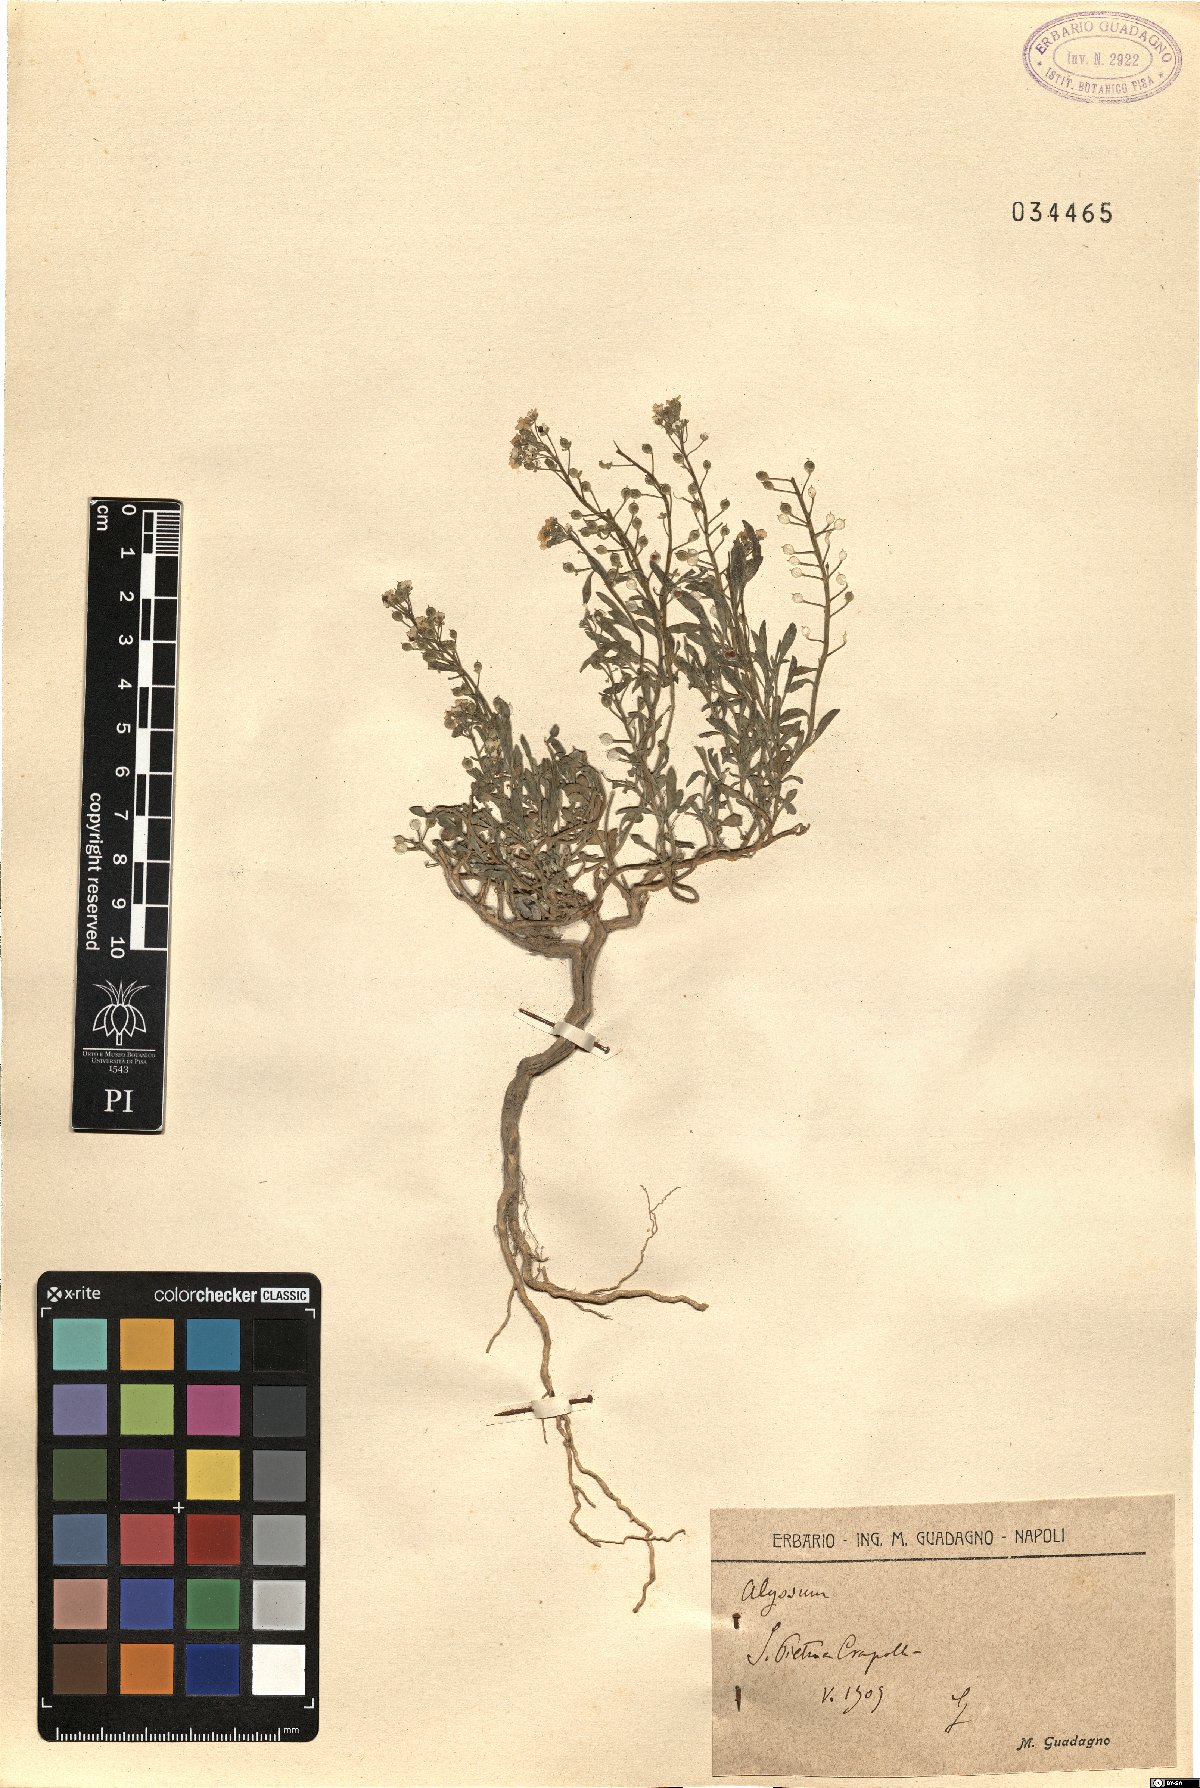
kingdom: Plantae
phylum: Tracheophyta
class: Magnoliopsida
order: Brassicales
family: Brassicaceae
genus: Alyssum
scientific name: Alyssum
